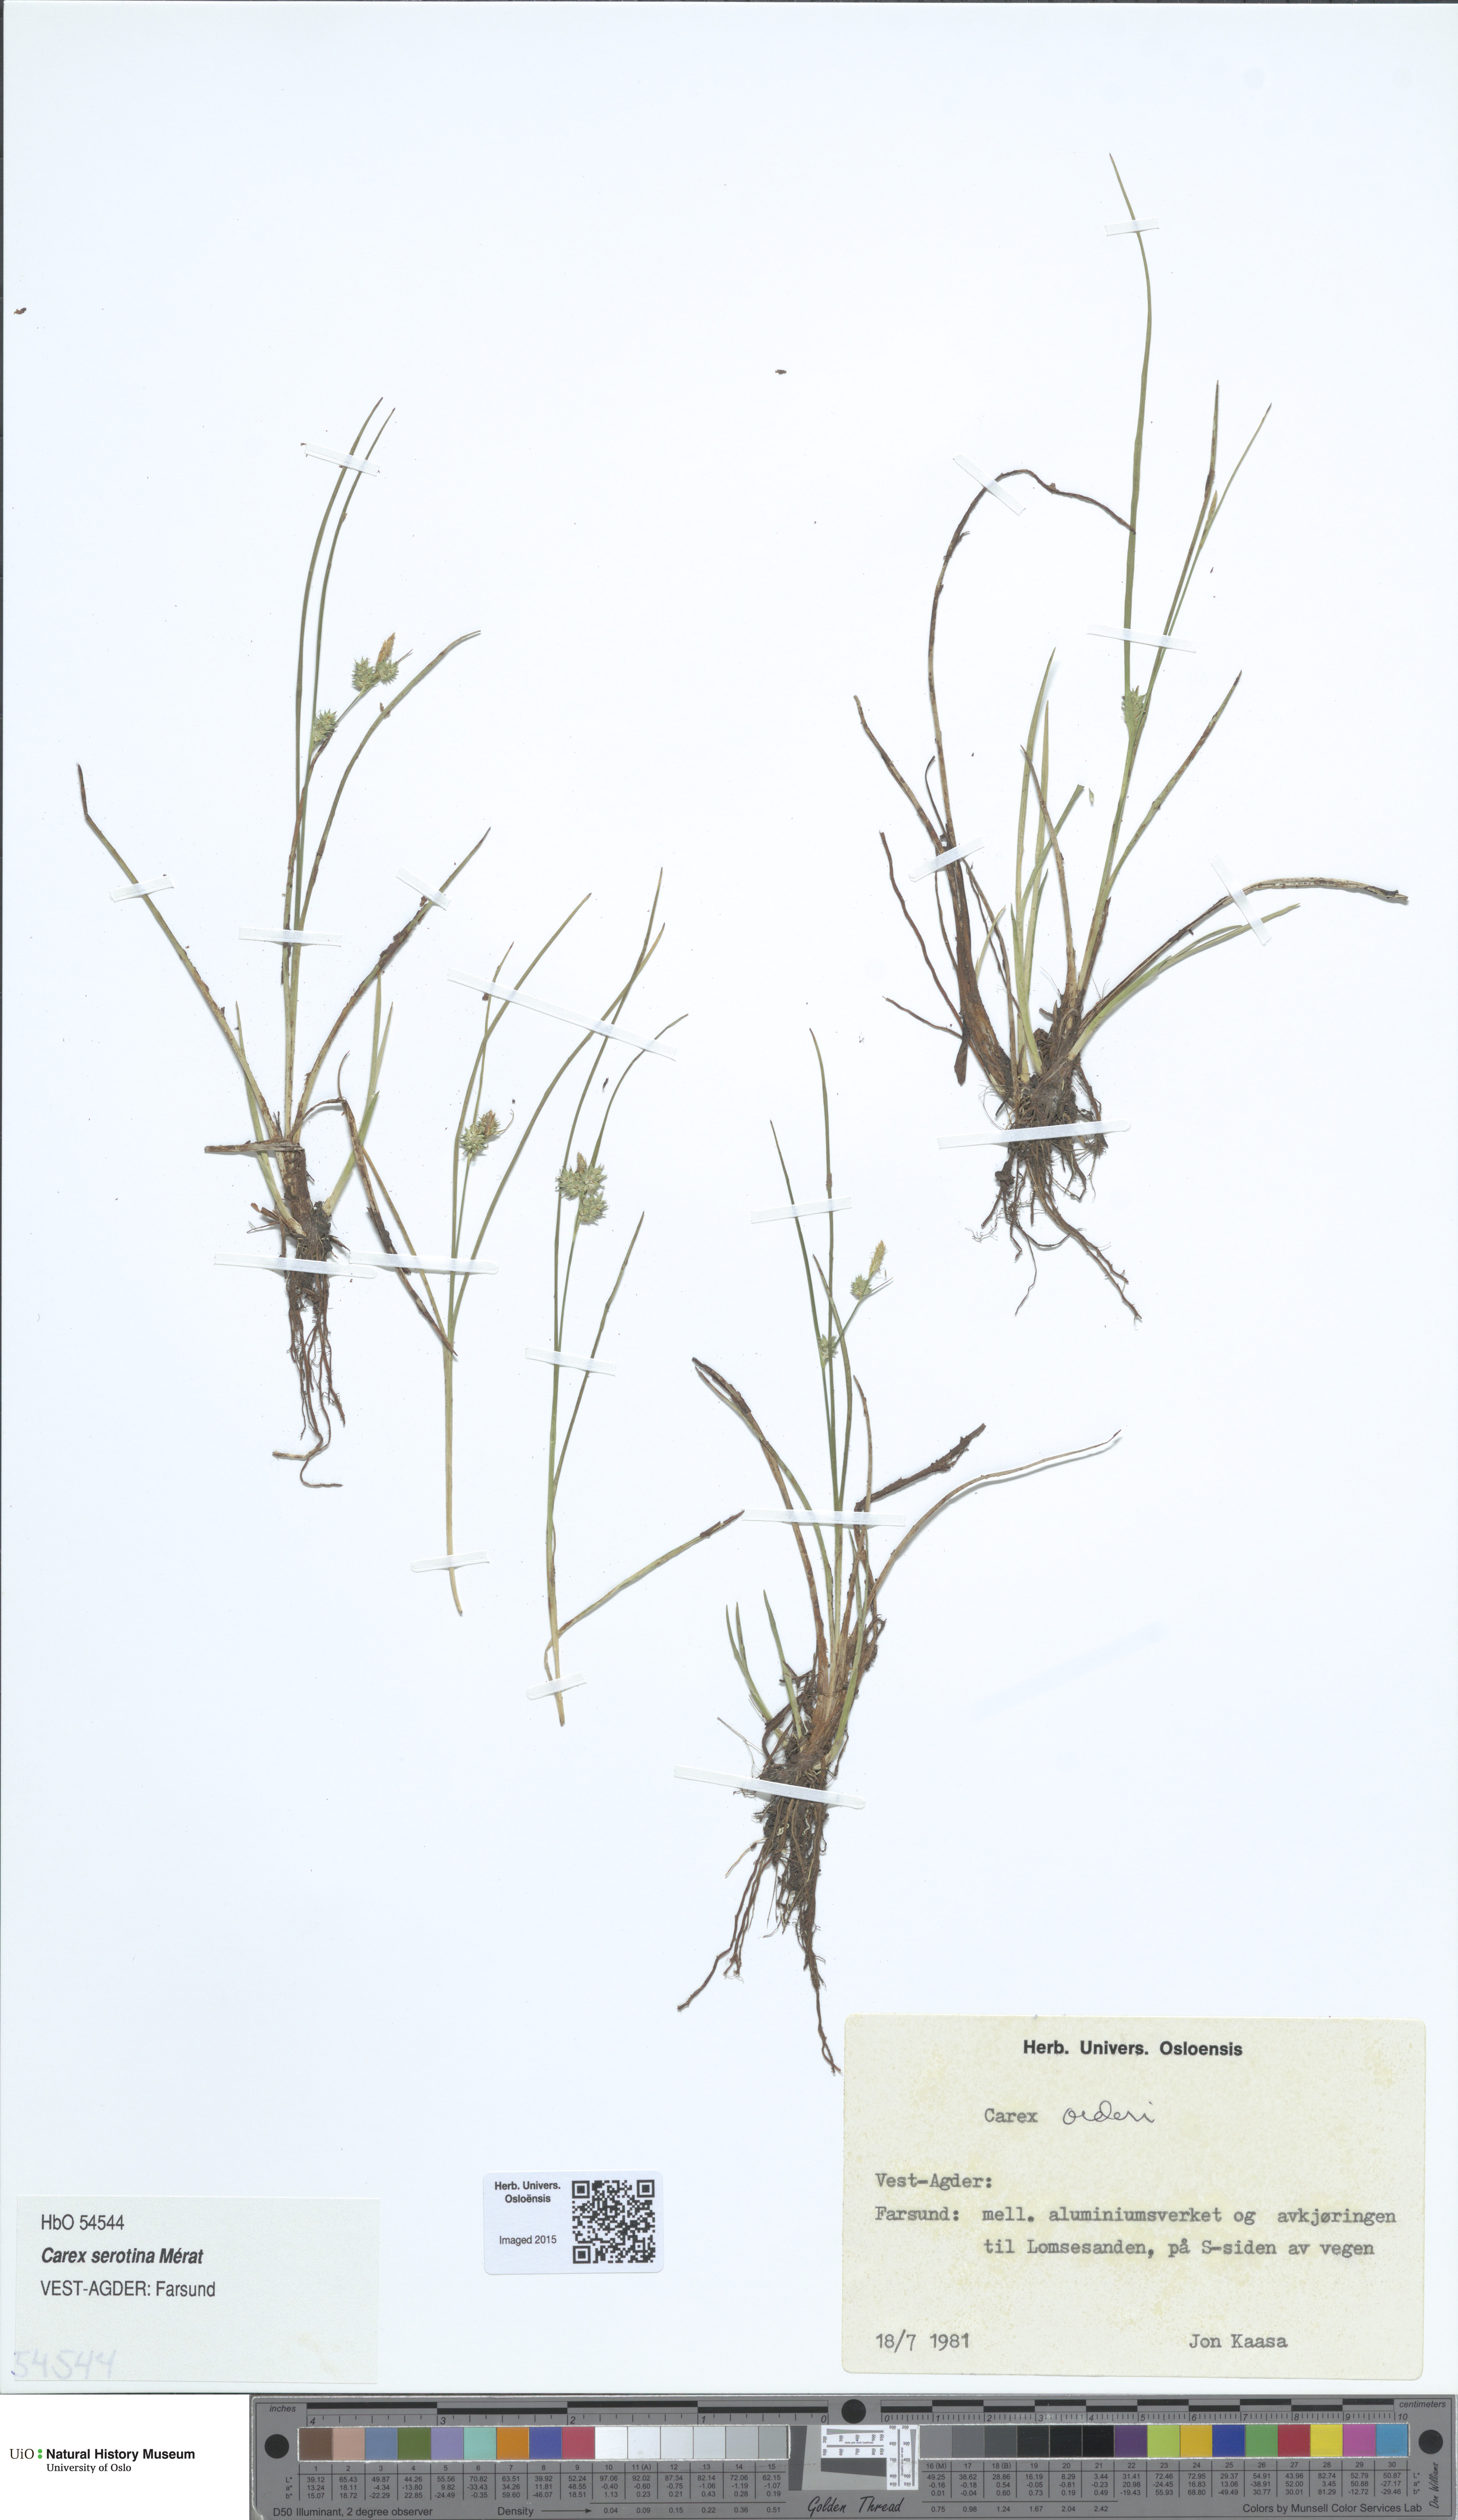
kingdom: Plantae
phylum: Tracheophyta
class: Liliopsida
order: Poales
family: Cyperaceae
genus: Carex
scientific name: Carex oederi
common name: Common & small-fruited yellow-sedge
